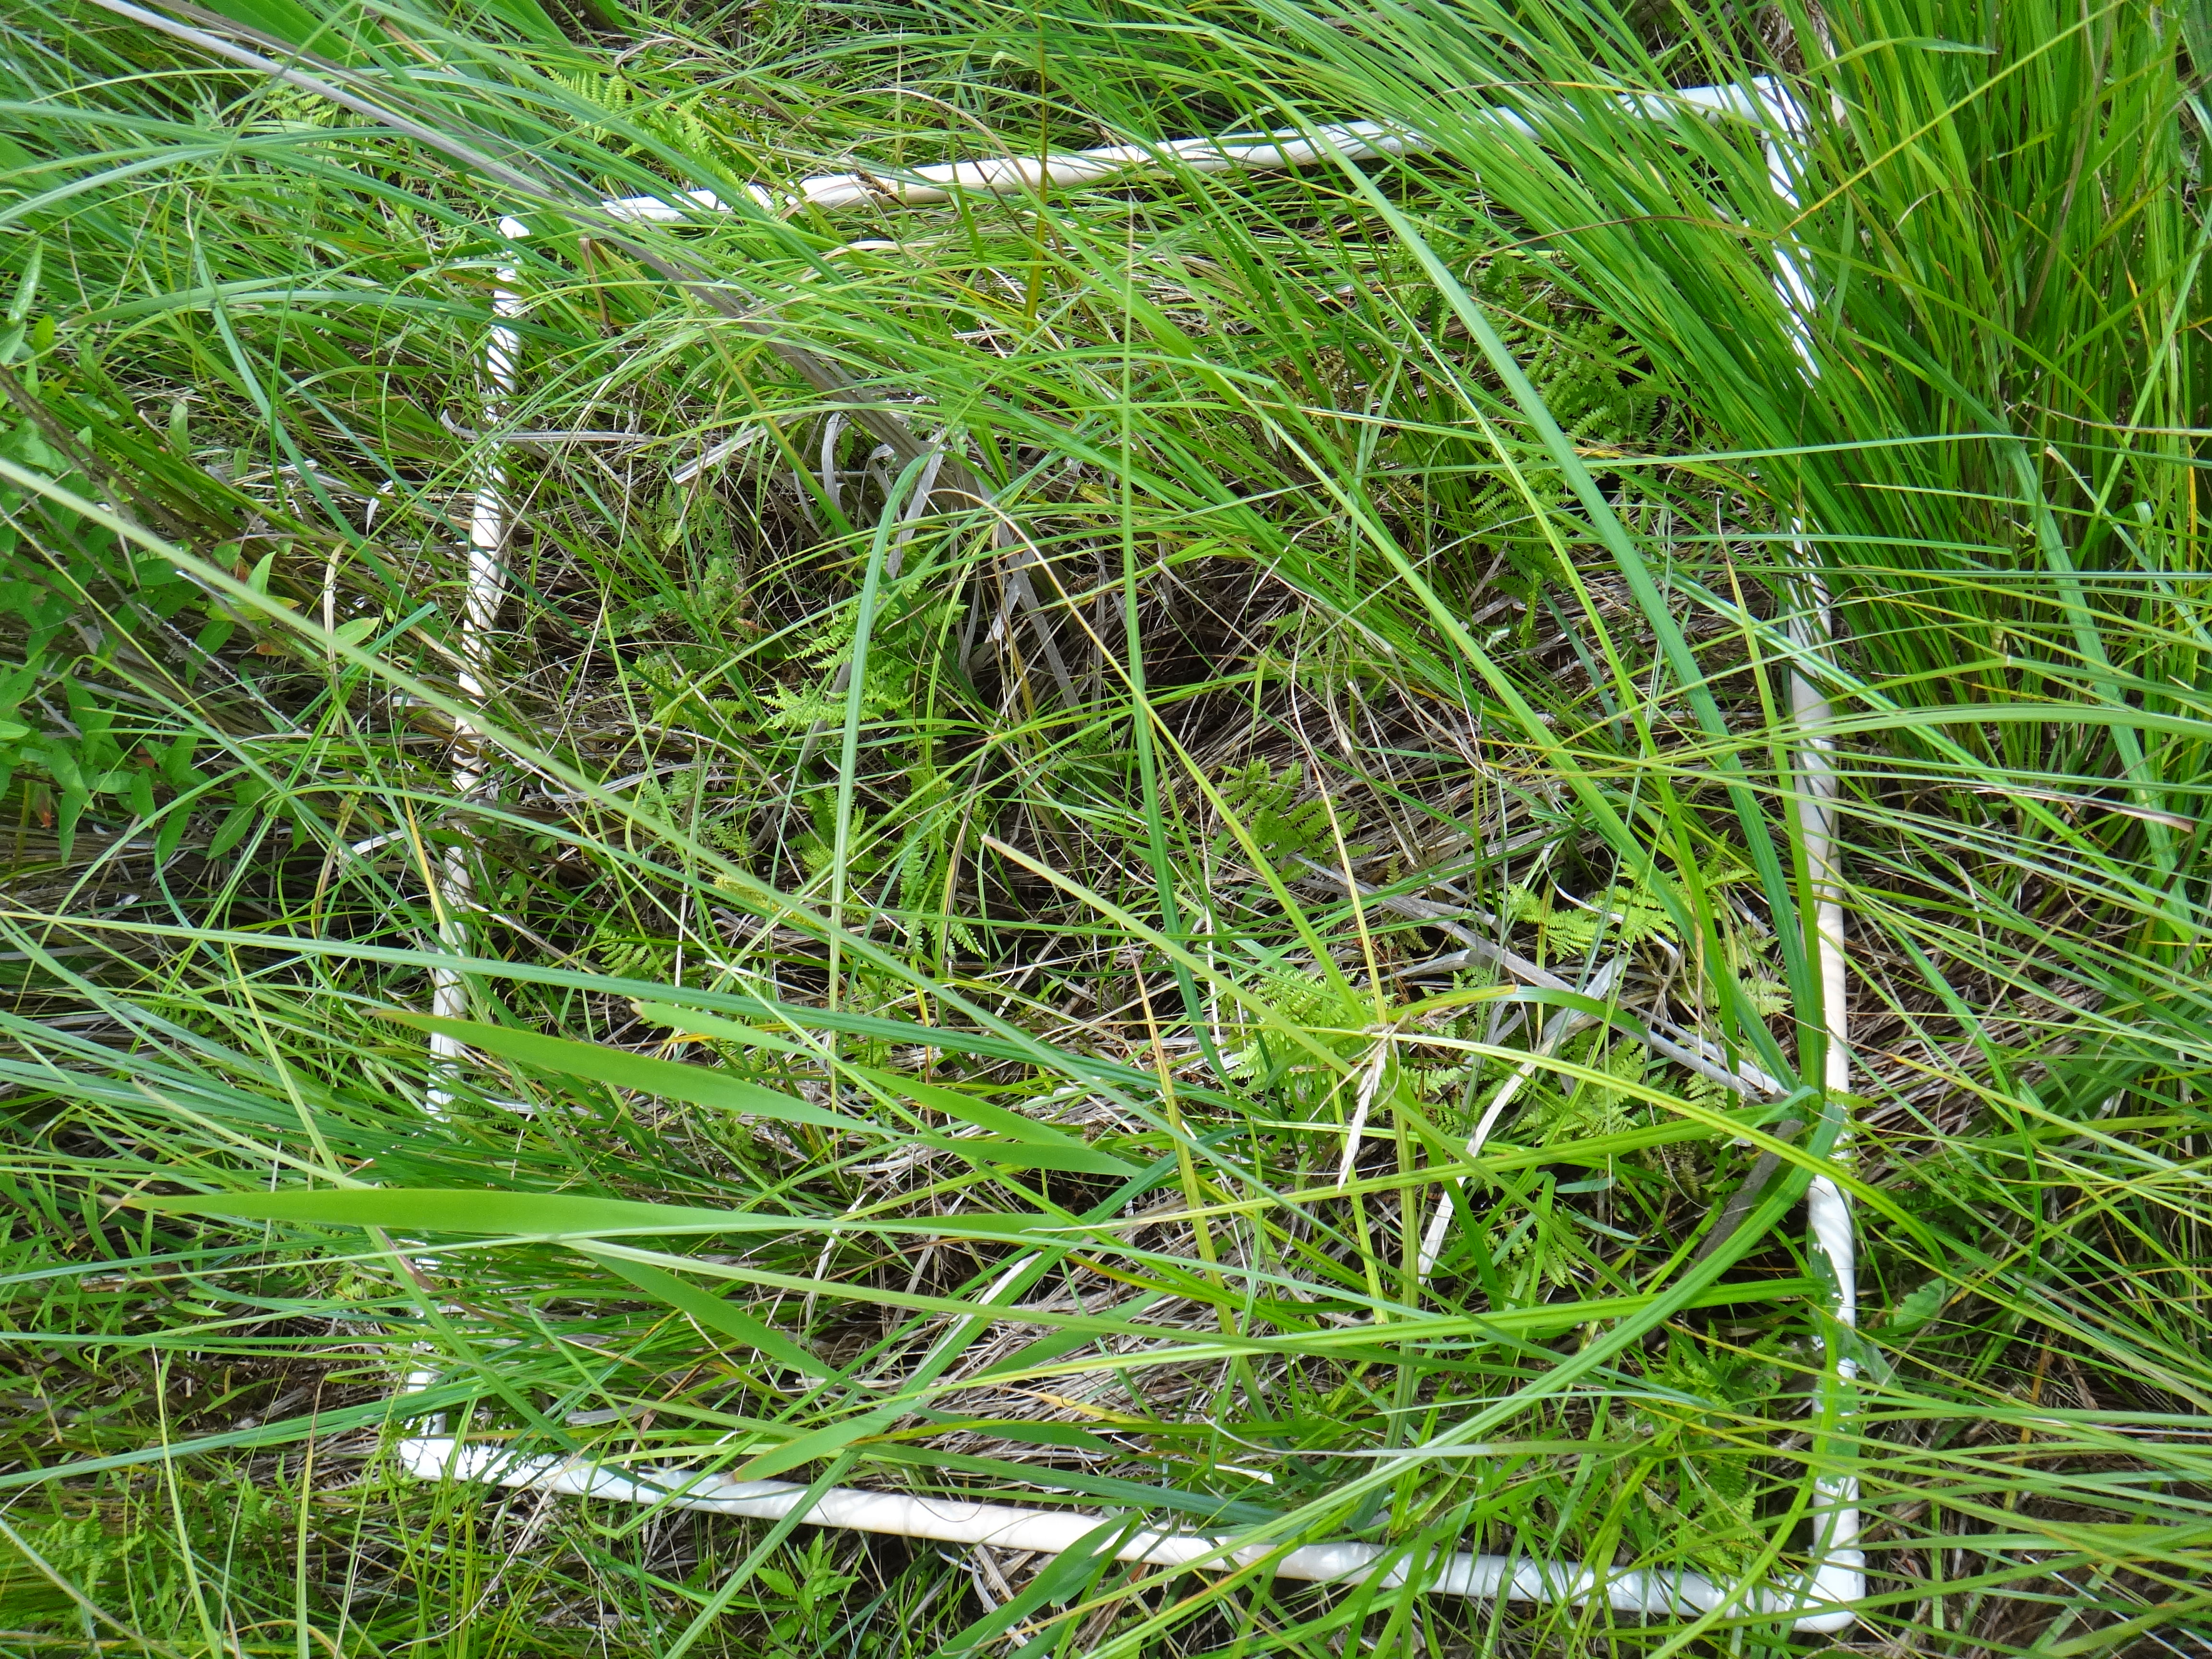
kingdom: Plantae
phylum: Tracheophyta
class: Magnoliopsida
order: Caryophyllales
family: Polygonaceae
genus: Persicaria
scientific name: Persicaria amphibia
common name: Amphibious bistort
